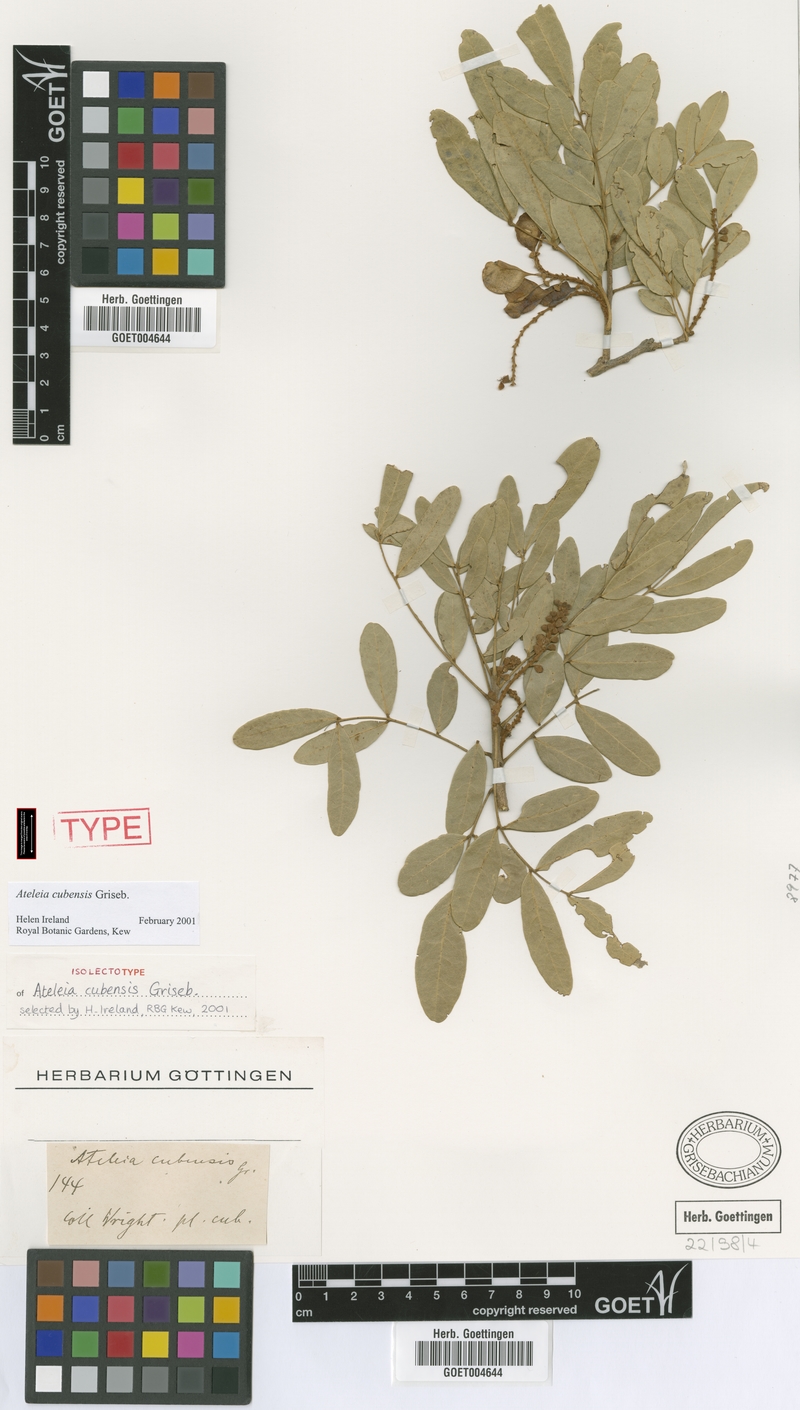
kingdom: Plantae
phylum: Tracheophyta
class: Magnoliopsida
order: Fabales
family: Fabaceae
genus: Ateleia
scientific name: Ateleia cubensis
